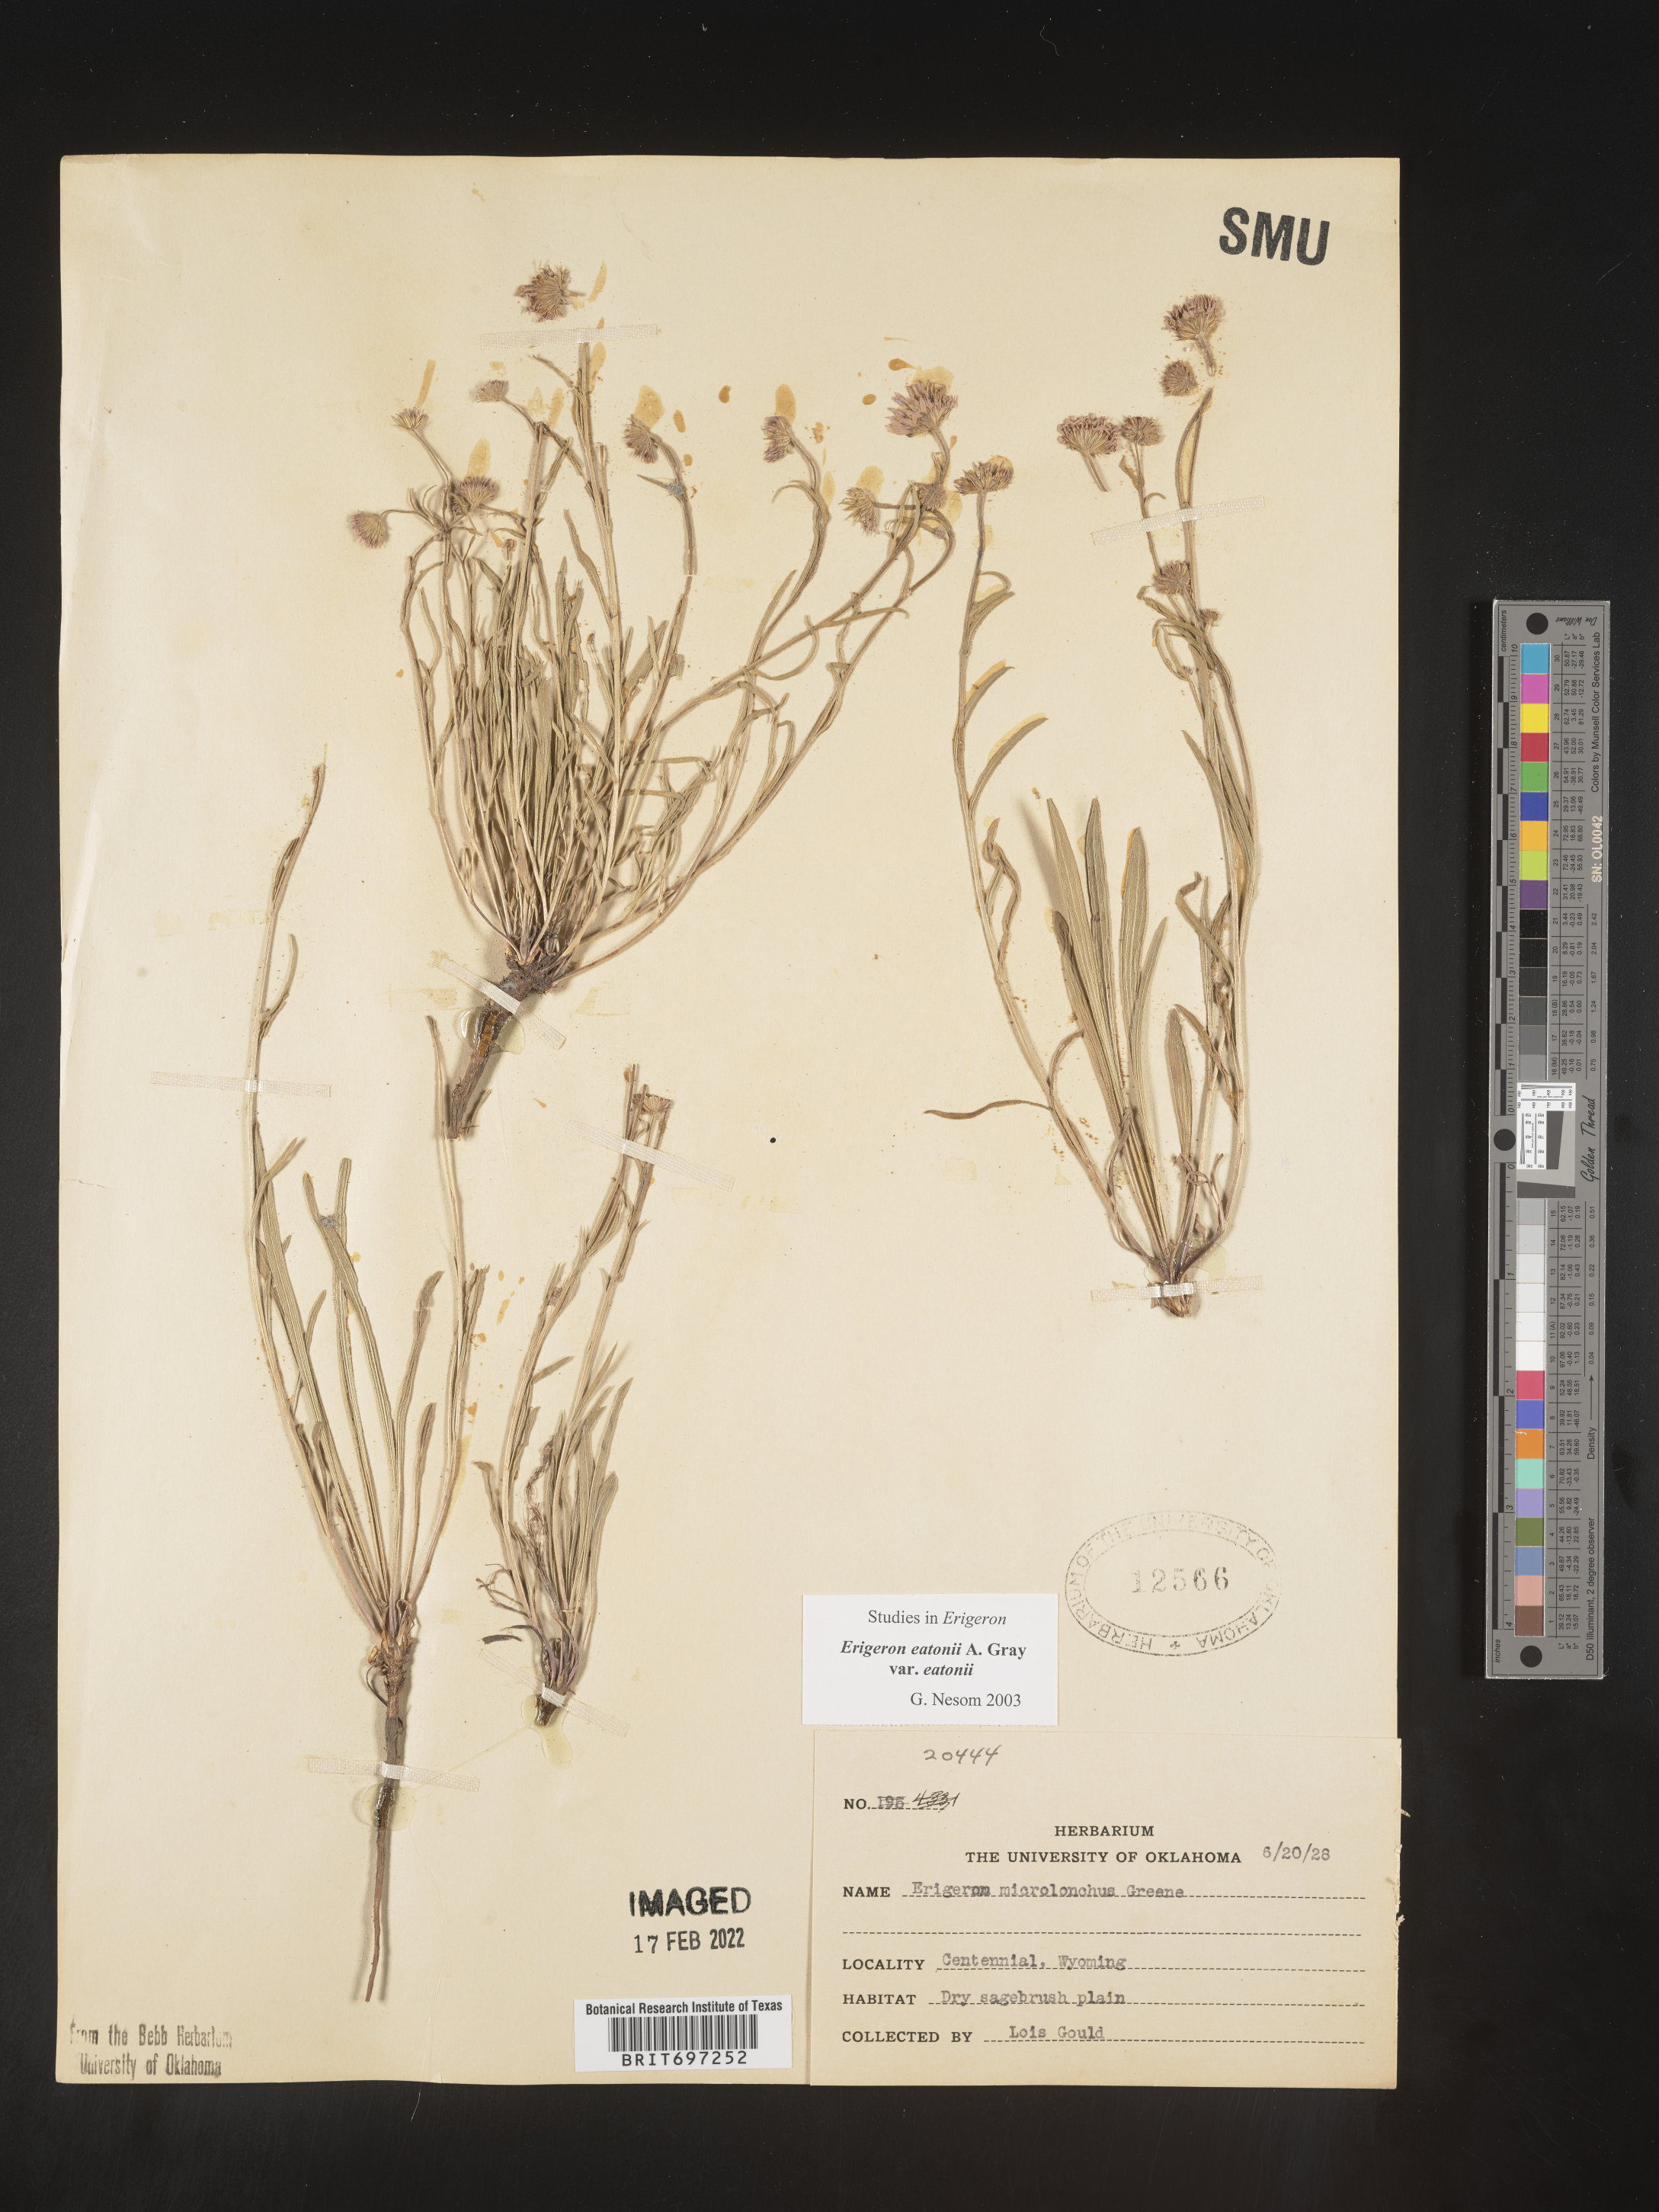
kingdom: Plantae
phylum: Tracheophyta
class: Magnoliopsida
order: Asterales
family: Asteraceae
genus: Erigeron
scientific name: Erigeron eatonii
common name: Eaton's fleabane
